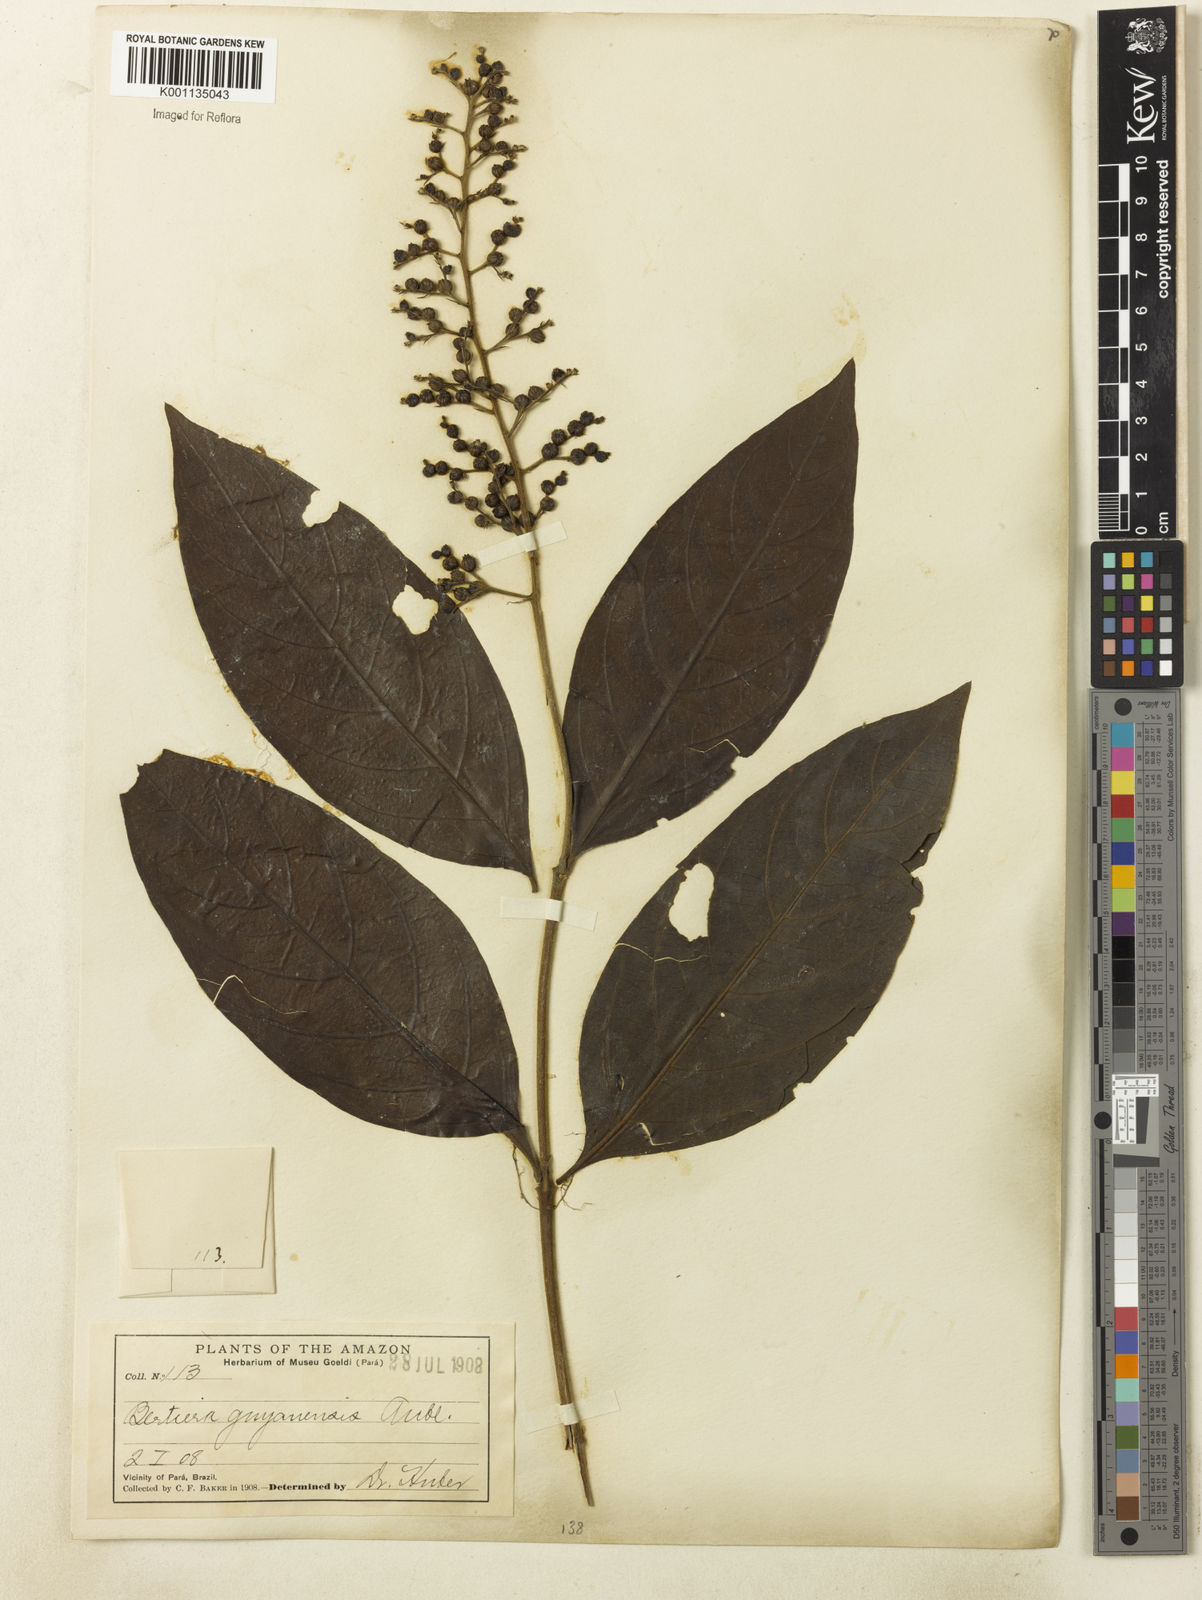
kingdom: Plantae
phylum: Tracheophyta
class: Magnoliopsida
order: Gentianales
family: Rubiaceae
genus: Bertiera
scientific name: Bertiera guianensis
